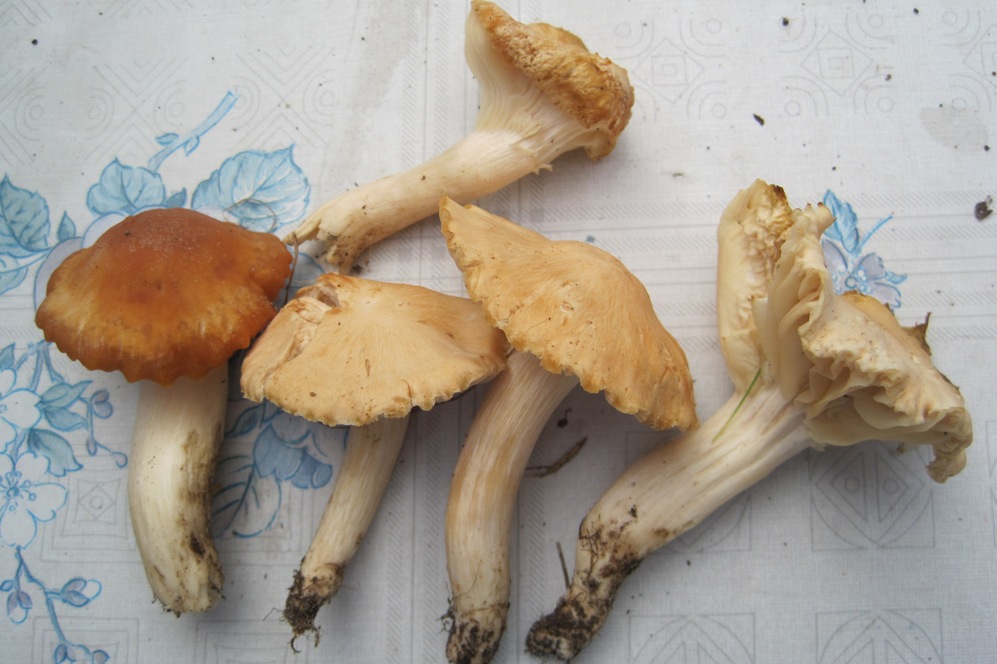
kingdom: Fungi
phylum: Basidiomycota
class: Agaricomycetes
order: Agaricales
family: Hygrophoraceae
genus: Cuphophyllus
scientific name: Cuphophyllus pratensis
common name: eng-vokshat
